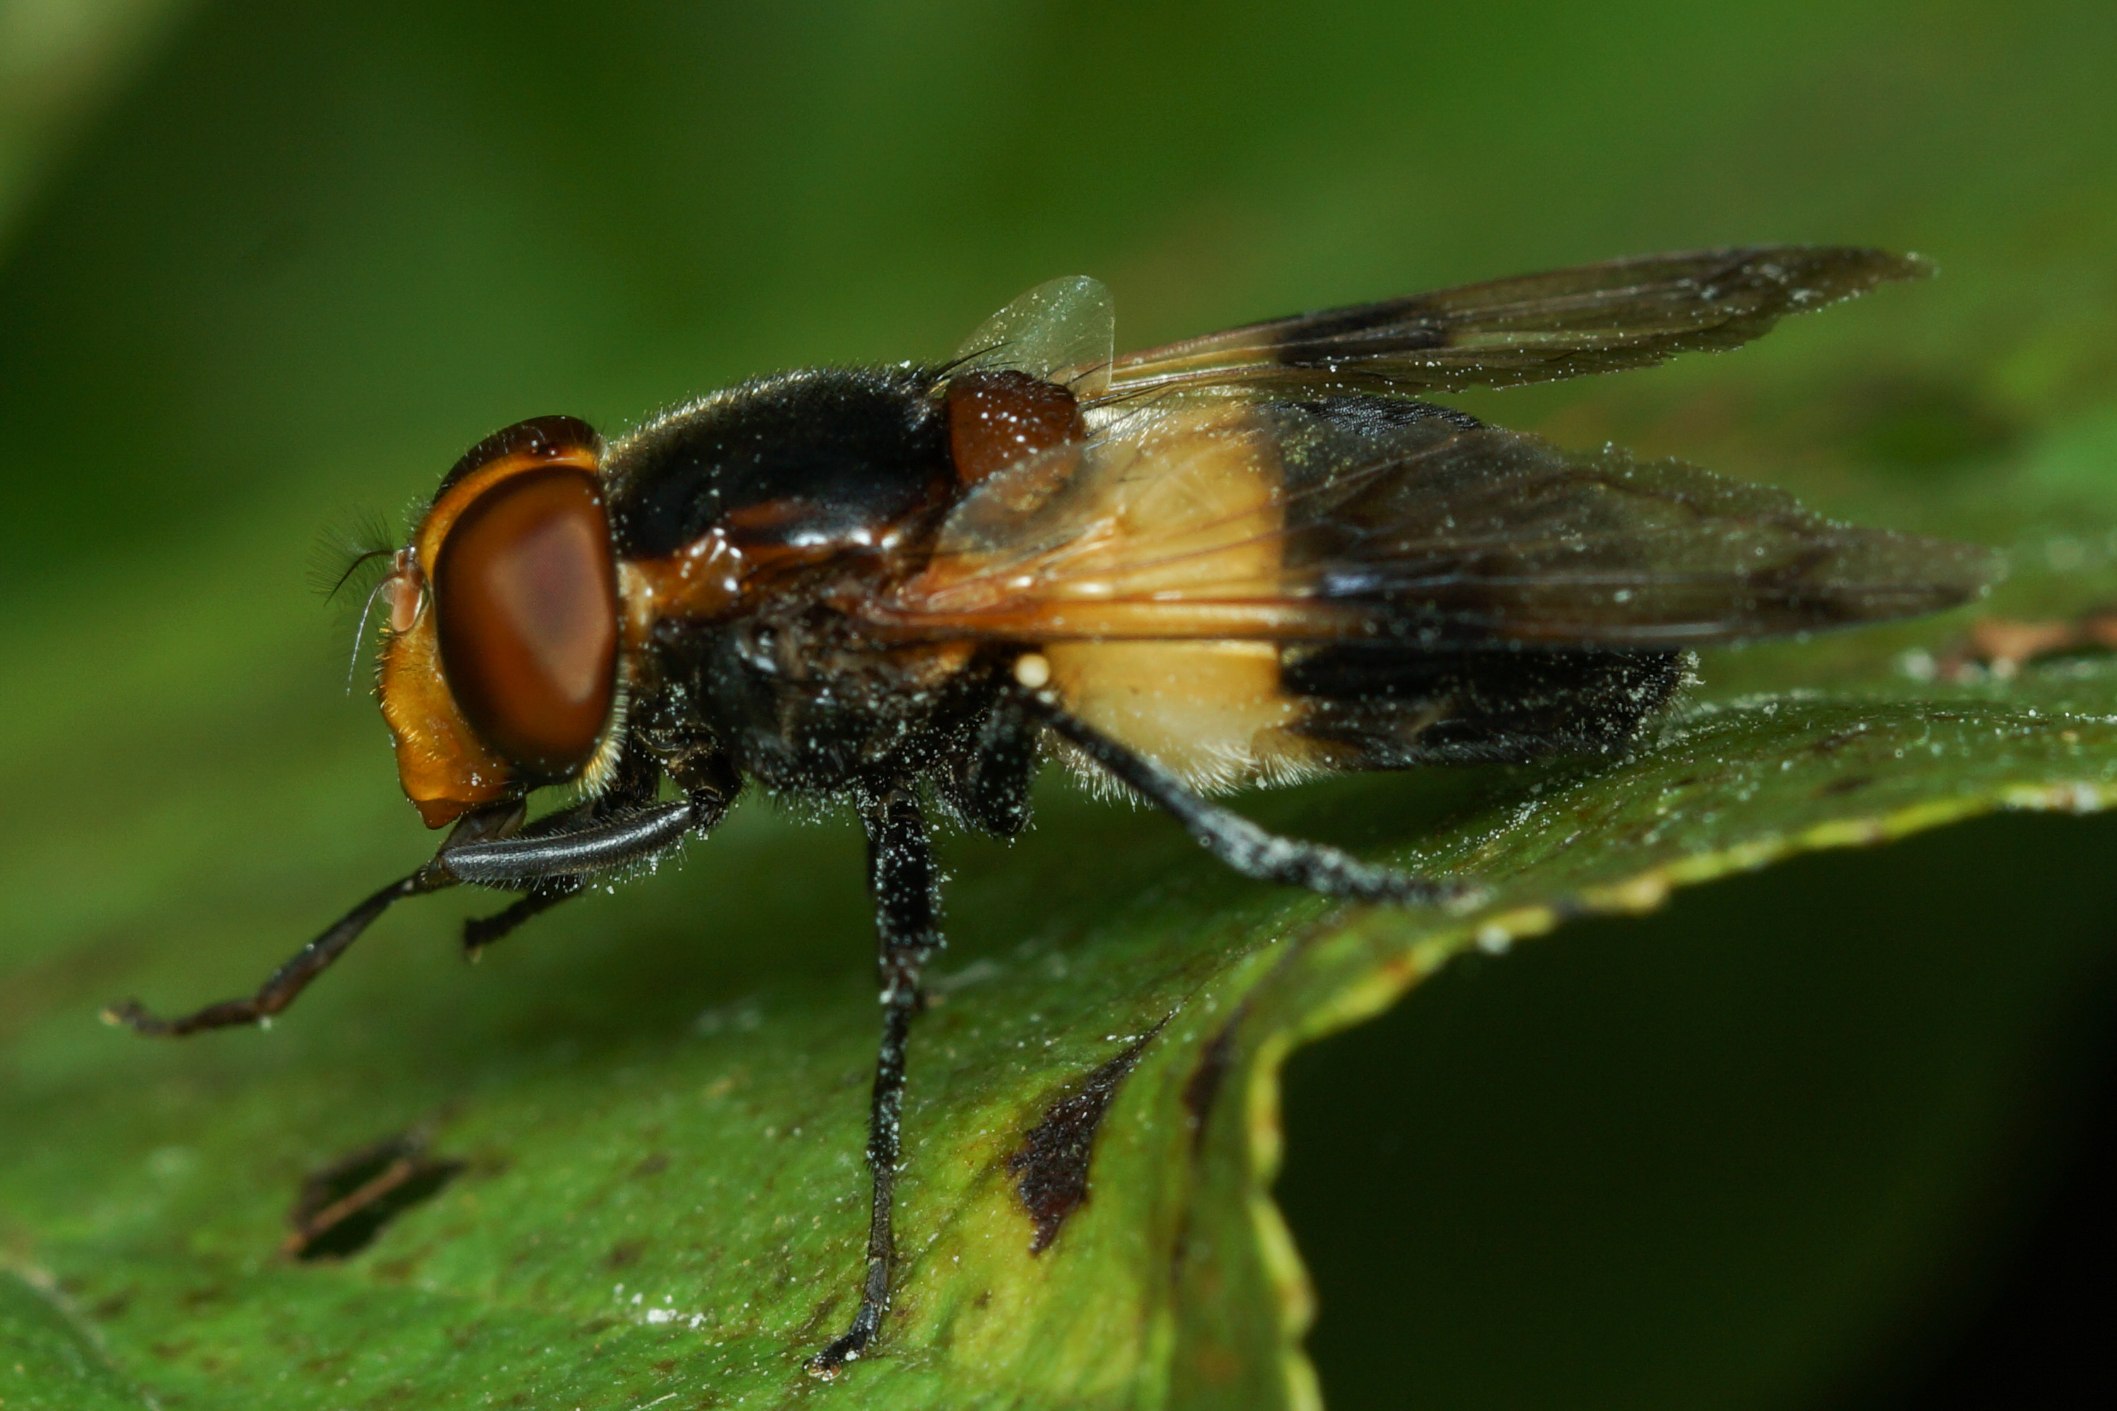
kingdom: Animalia
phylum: Arthropoda
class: Insecta
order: Diptera
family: Syrphidae
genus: Volucella
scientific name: Volucella pellucens
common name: Hvidbåndet humlesvirreflue
